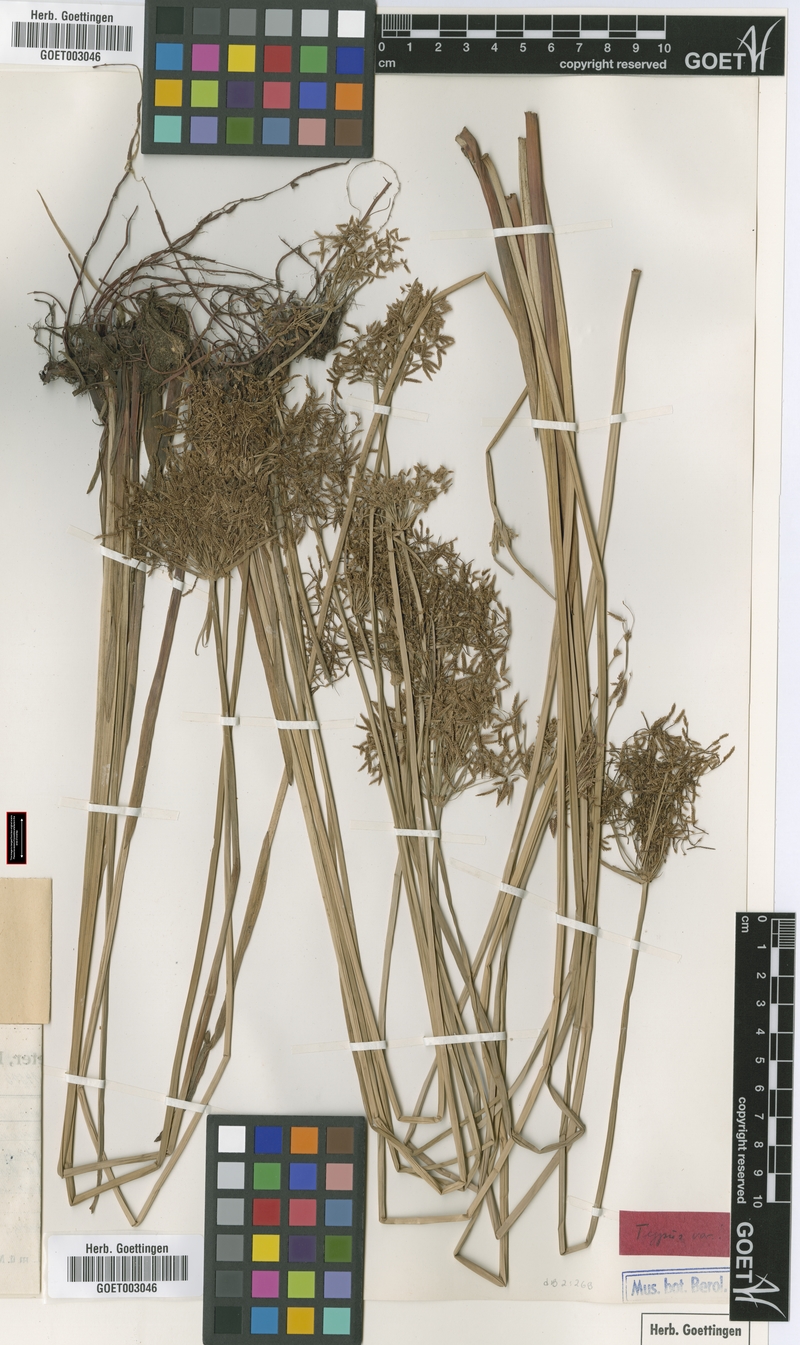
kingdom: Plantae
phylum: Tracheophyta
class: Liliopsida
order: Poales
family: Cyperaceae
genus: Cyperus
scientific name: Cyperus denudatus
